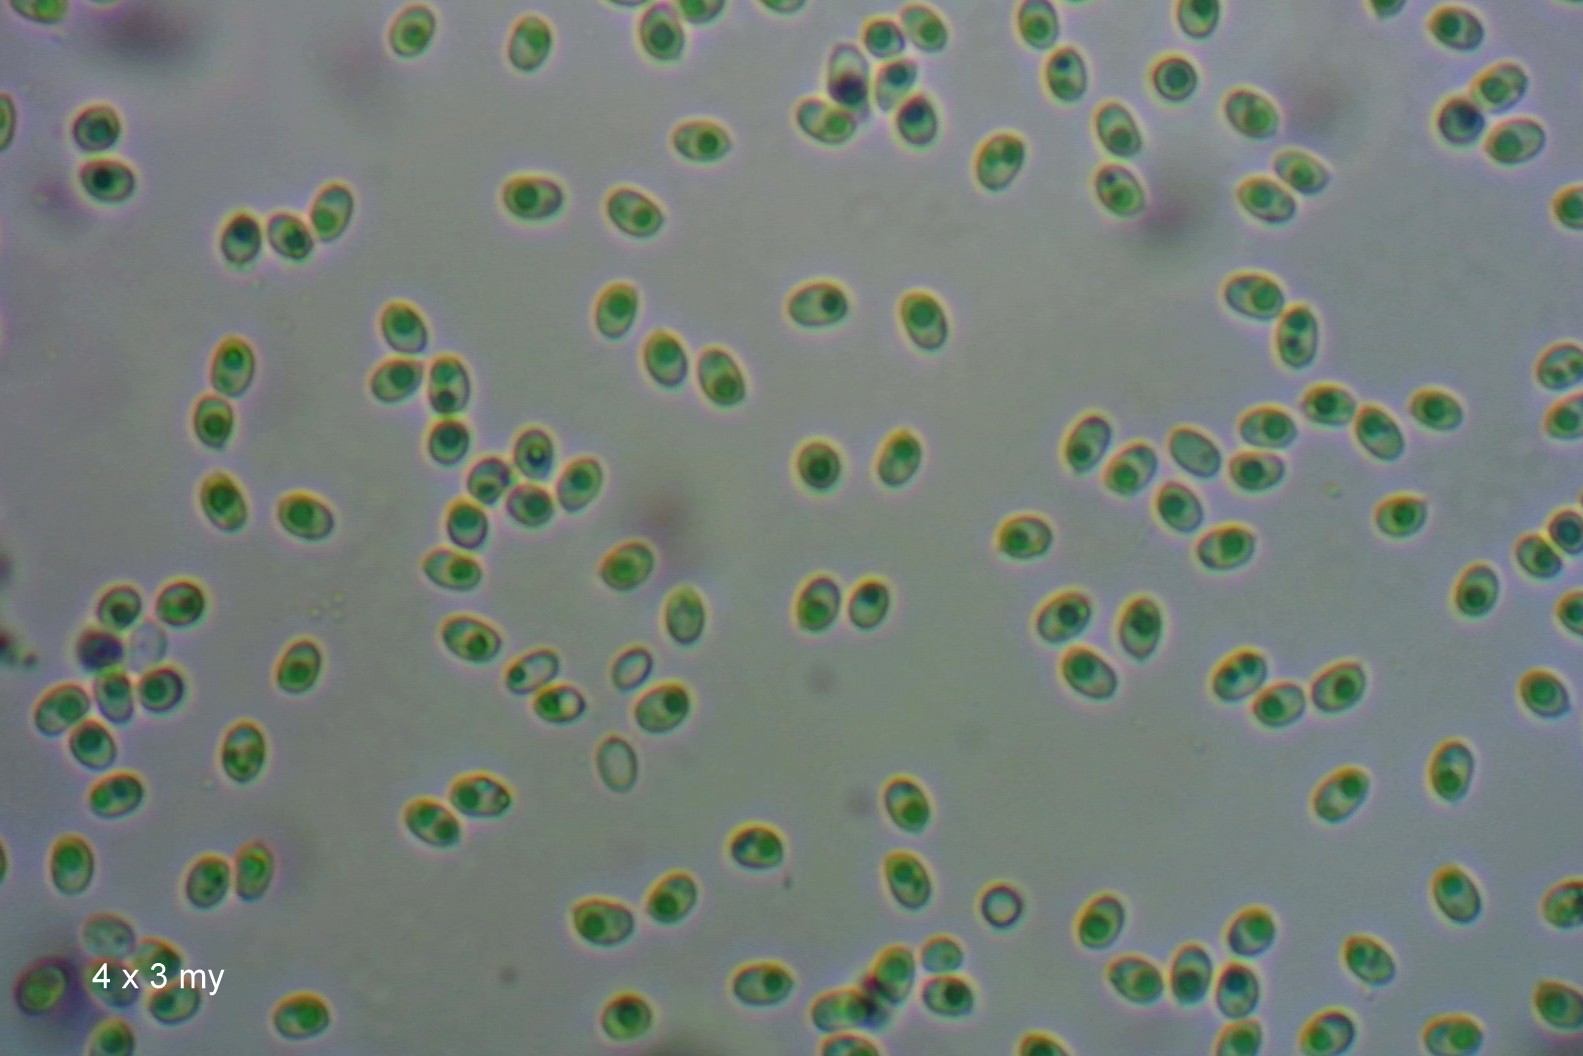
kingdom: Fungi
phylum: Basidiomycota
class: Agaricomycetes
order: Russulales
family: Hericiaceae
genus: Laxitextum
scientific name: Laxitextum bicolor
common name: tvefarvet filtskind
